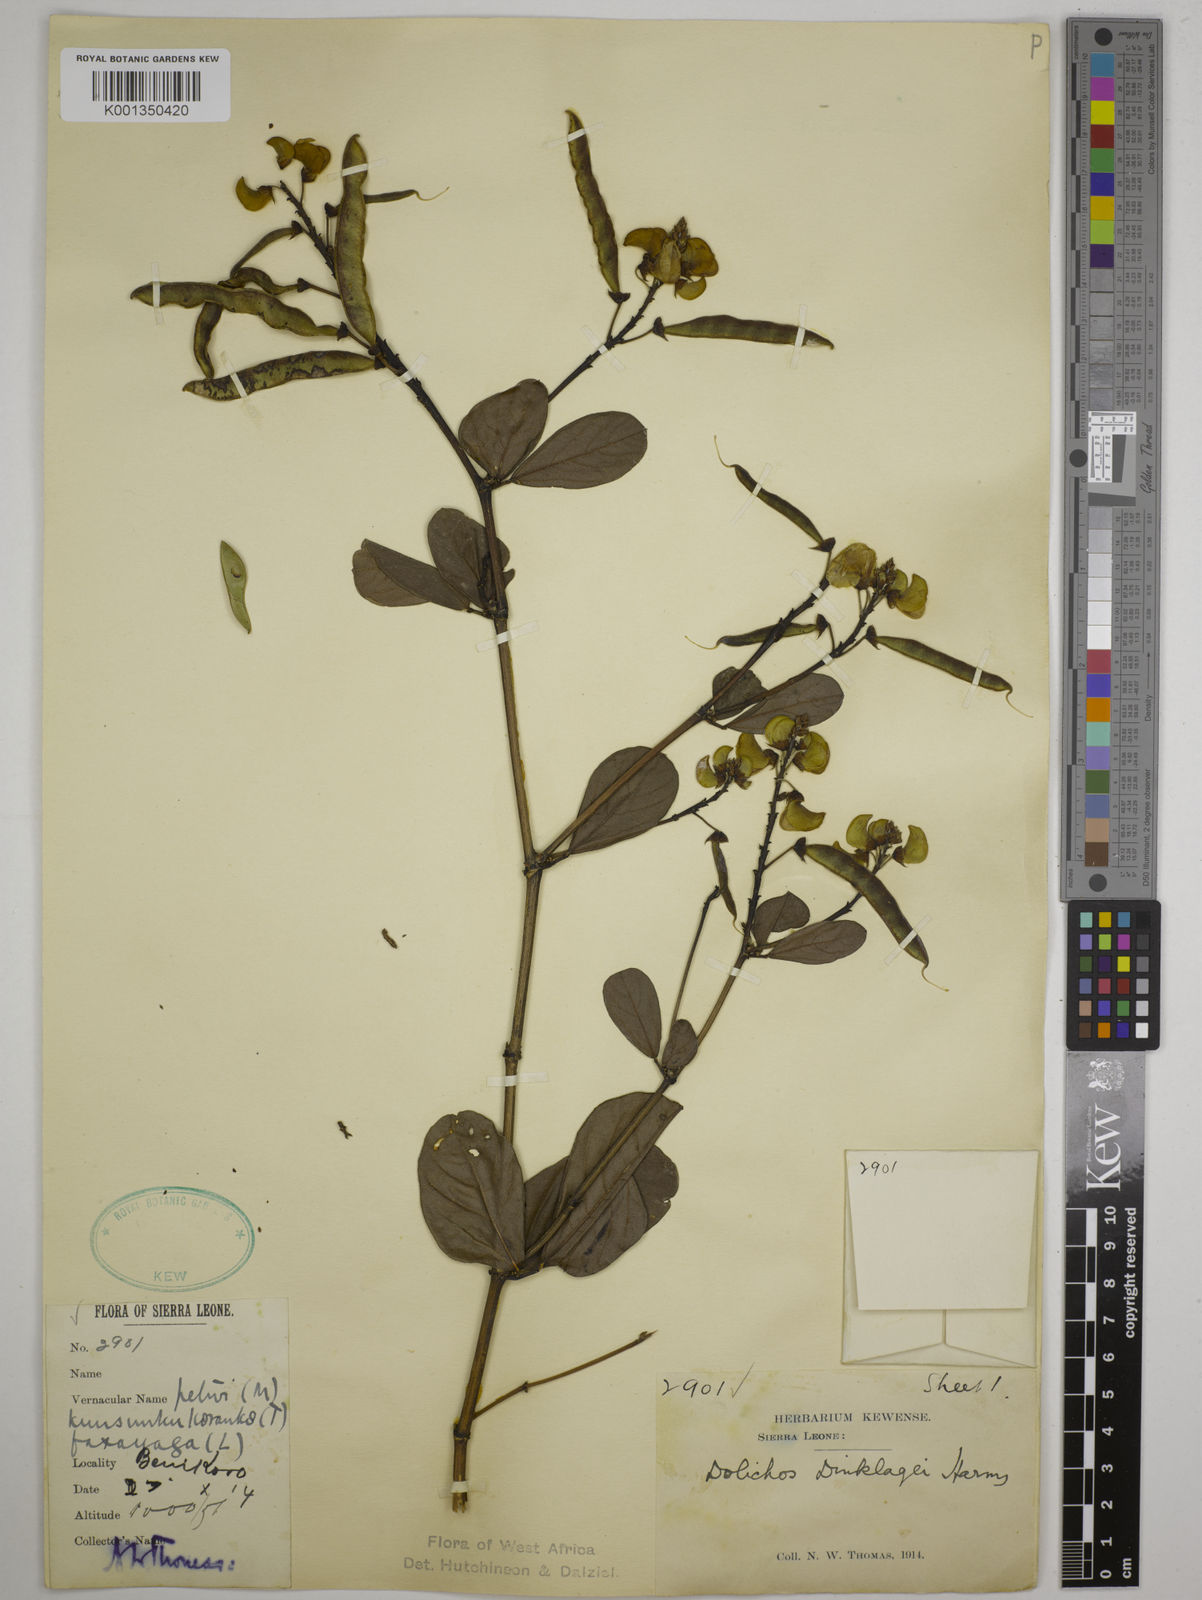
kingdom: Plantae
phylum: Tracheophyta
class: Magnoliopsida
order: Fabales
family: Fabaceae
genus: Dolichos
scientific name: Dolichos dinklagei
